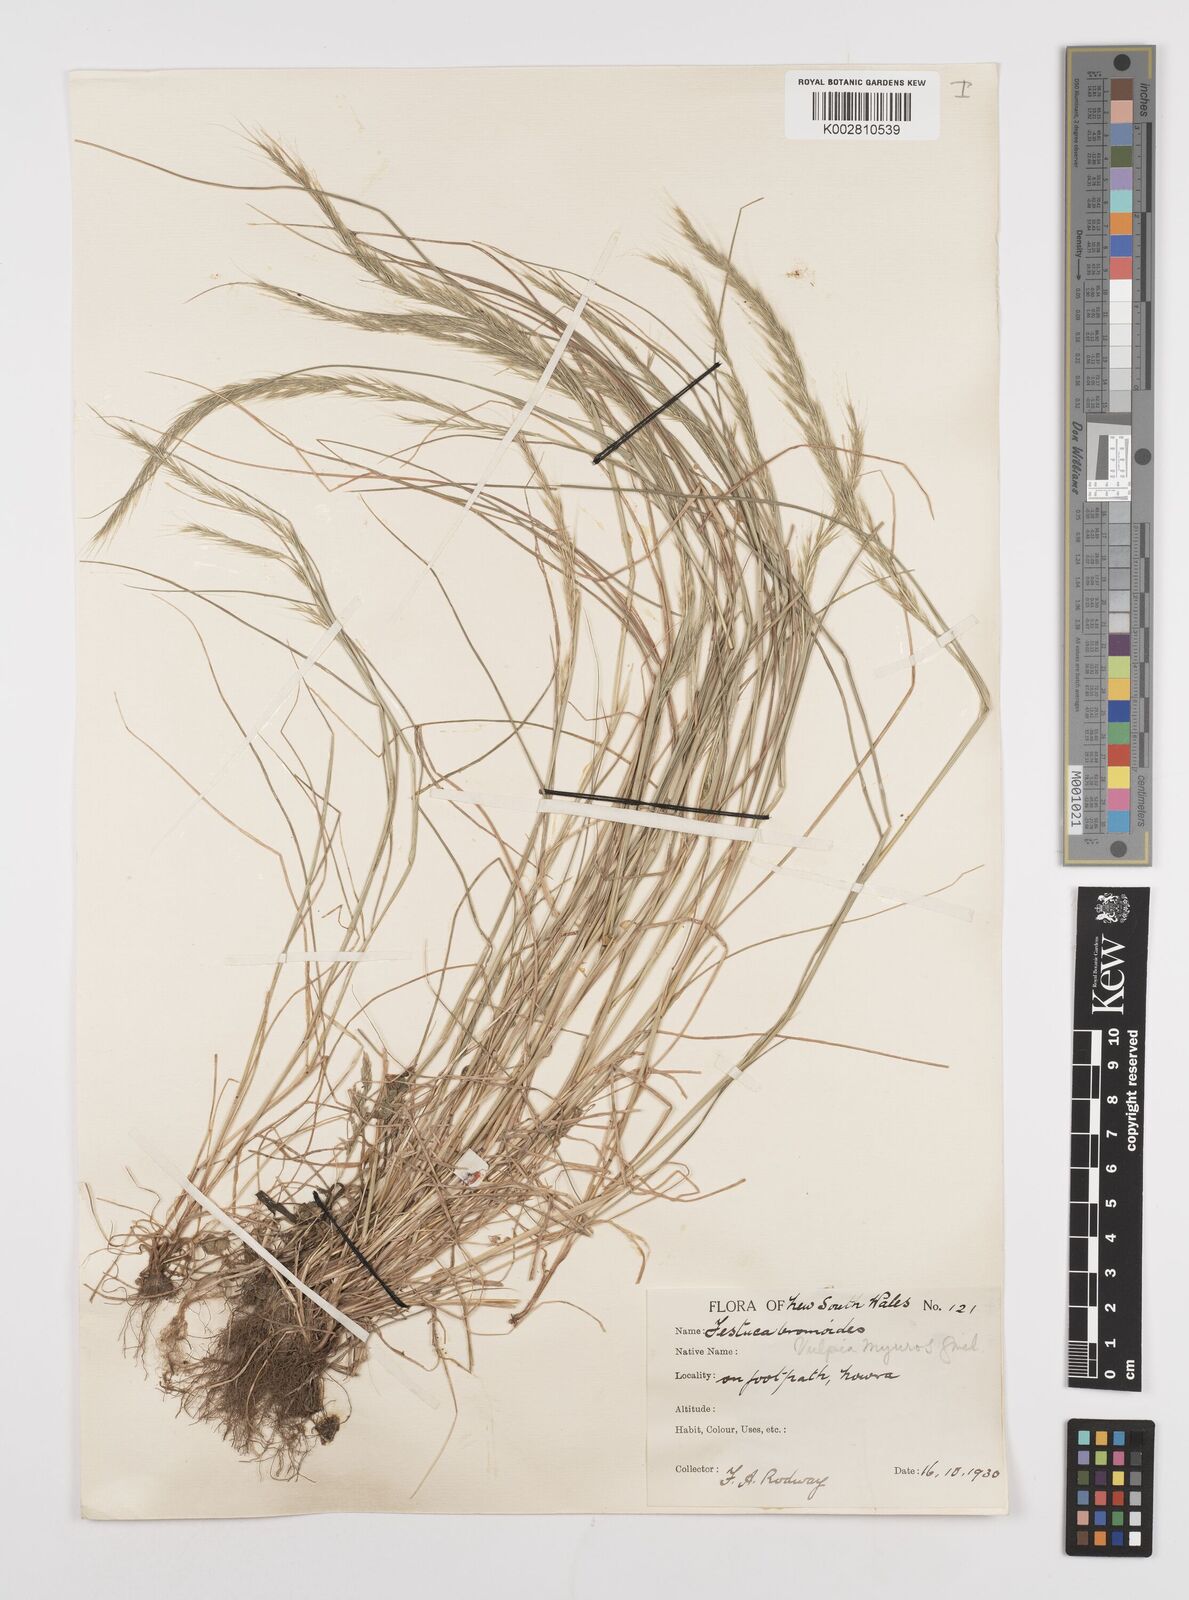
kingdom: Plantae
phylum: Tracheophyta
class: Liliopsida
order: Poales
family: Poaceae
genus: Festuca
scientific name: Festuca myuros
